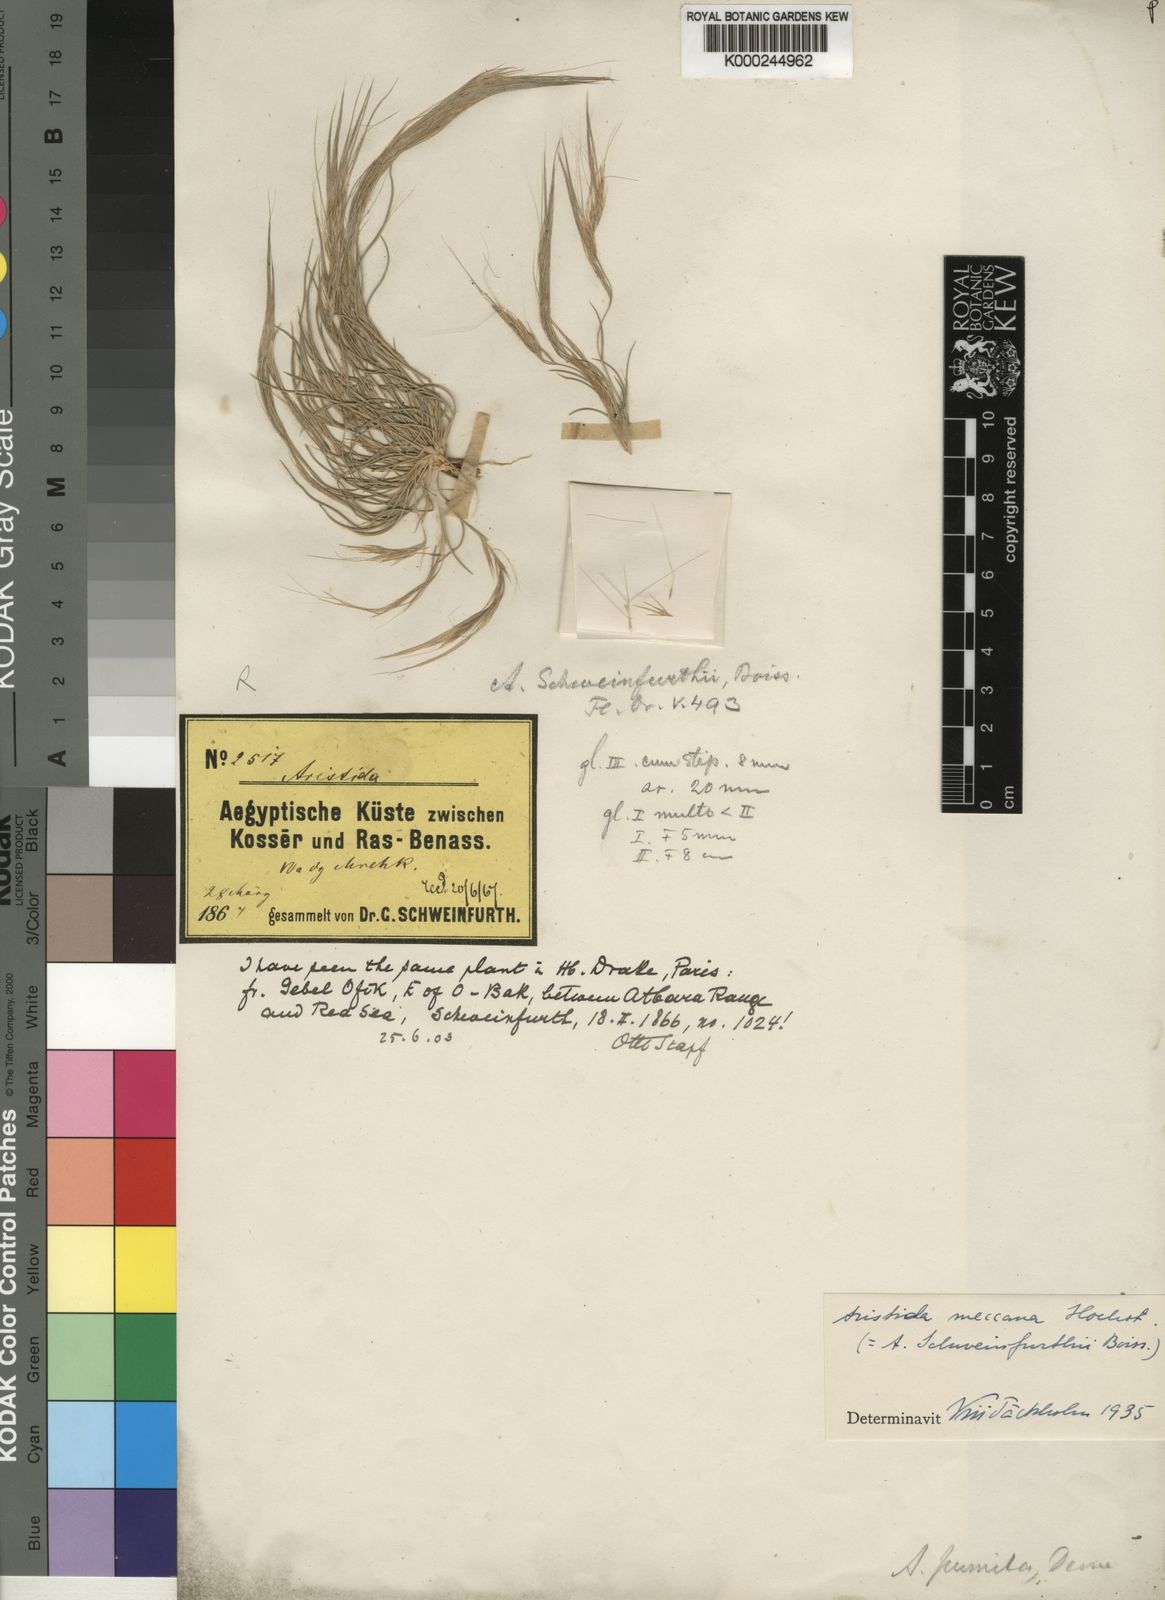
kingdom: Plantae
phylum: Tracheophyta
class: Liliopsida
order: Poales
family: Poaceae
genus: Aristida
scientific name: Aristida mutabilis
